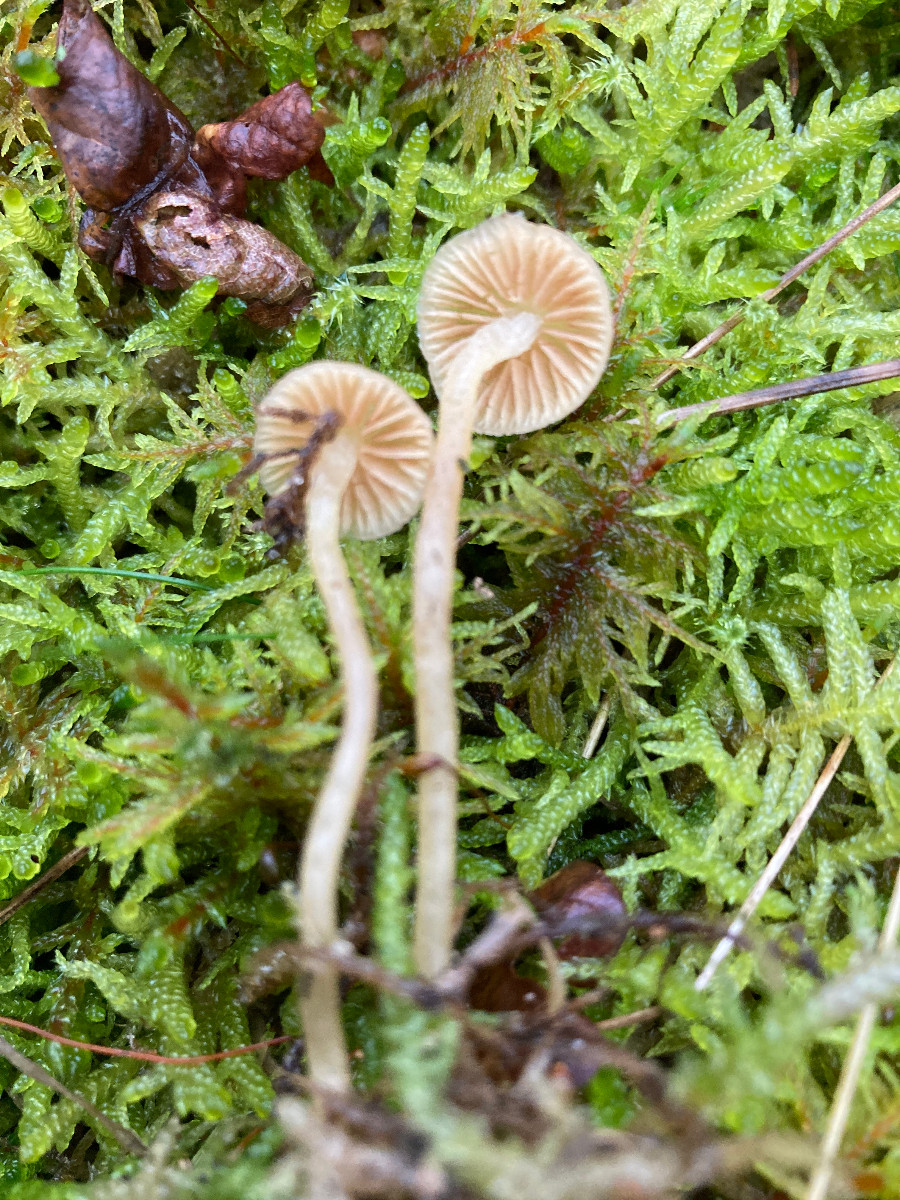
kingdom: Fungi
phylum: Basidiomycota
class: Agaricomycetes
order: Agaricales
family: Hymenogastraceae
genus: Galerina
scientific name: Galerina
